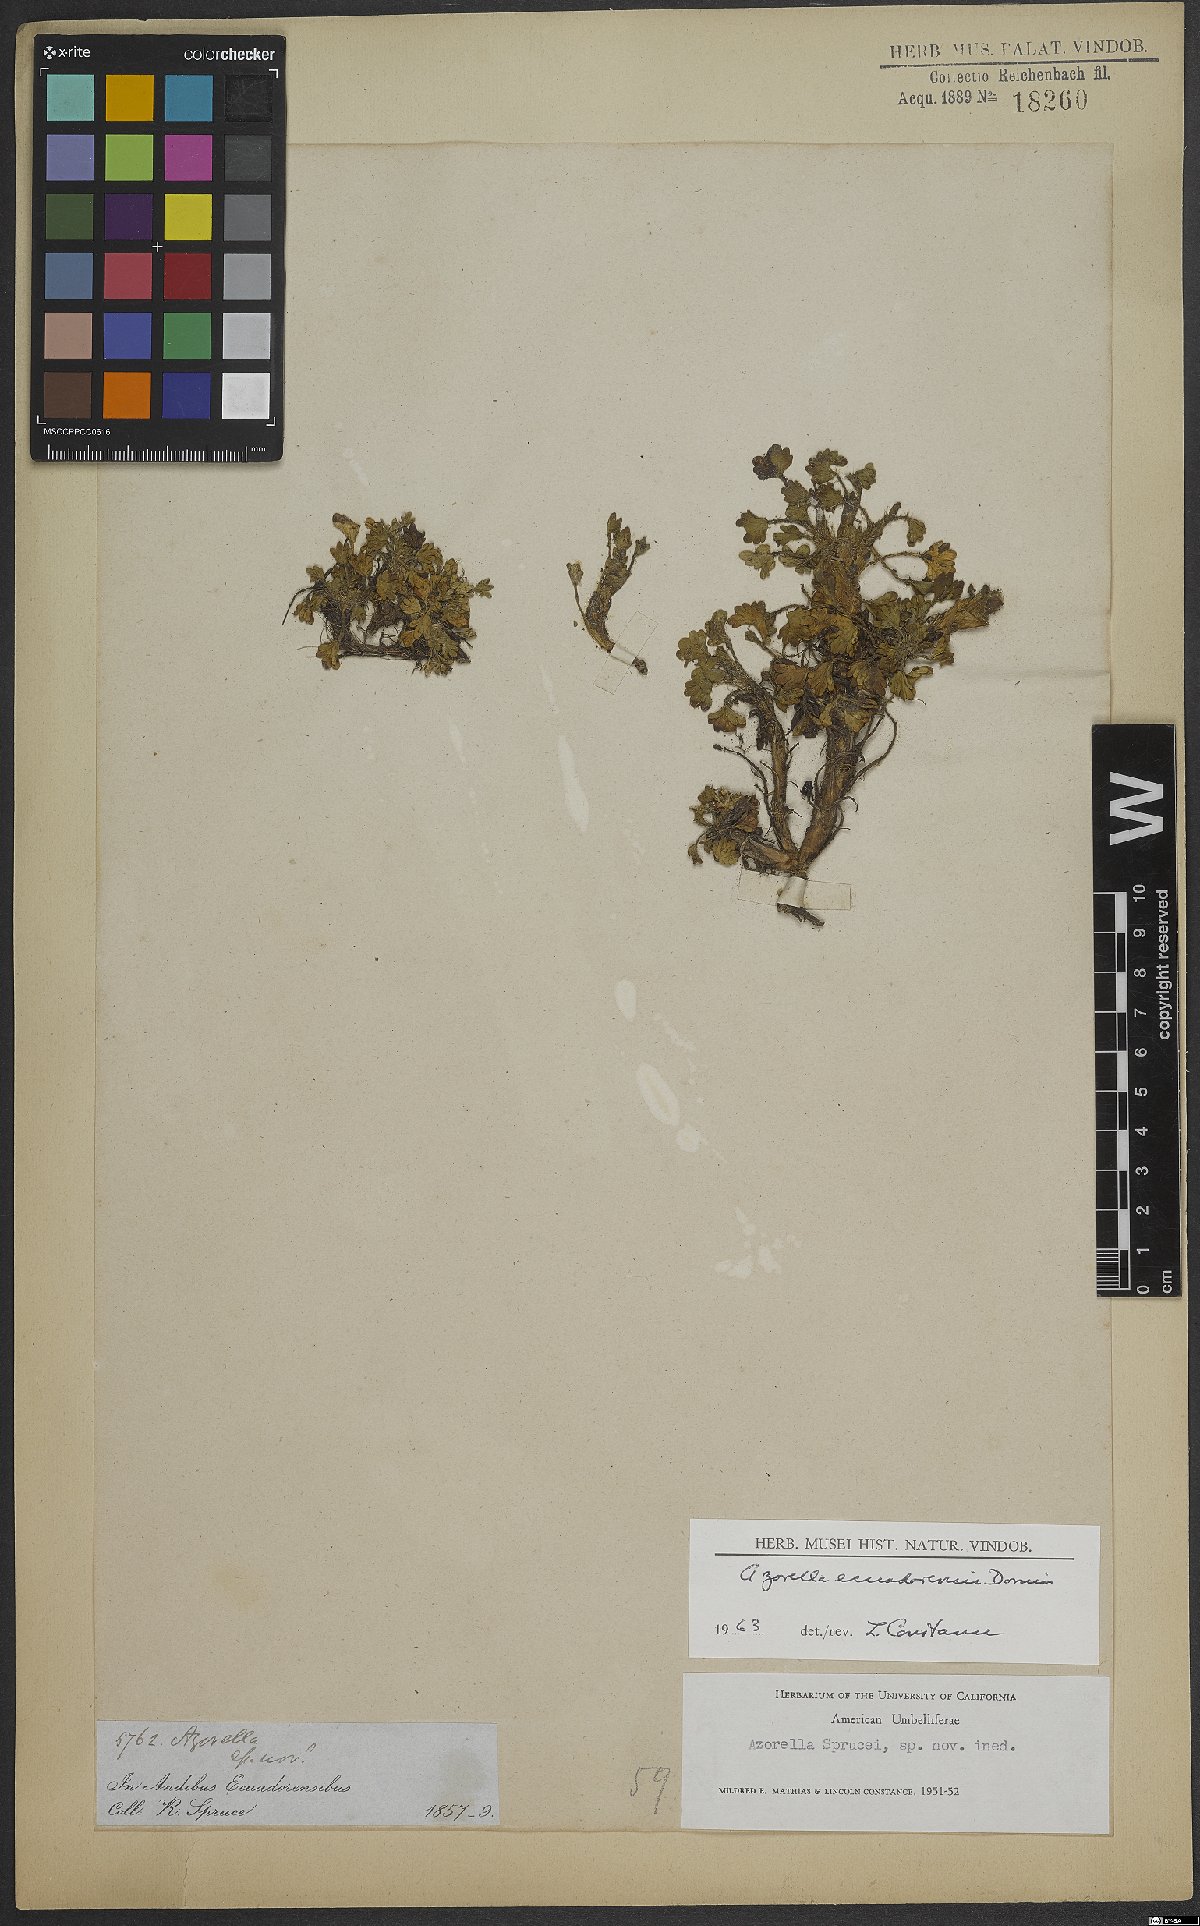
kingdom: Plantae
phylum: Tracheophyta
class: Magnoliopsida
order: Apiales
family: Apiaceae
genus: Azorella
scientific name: Azorella crenata
